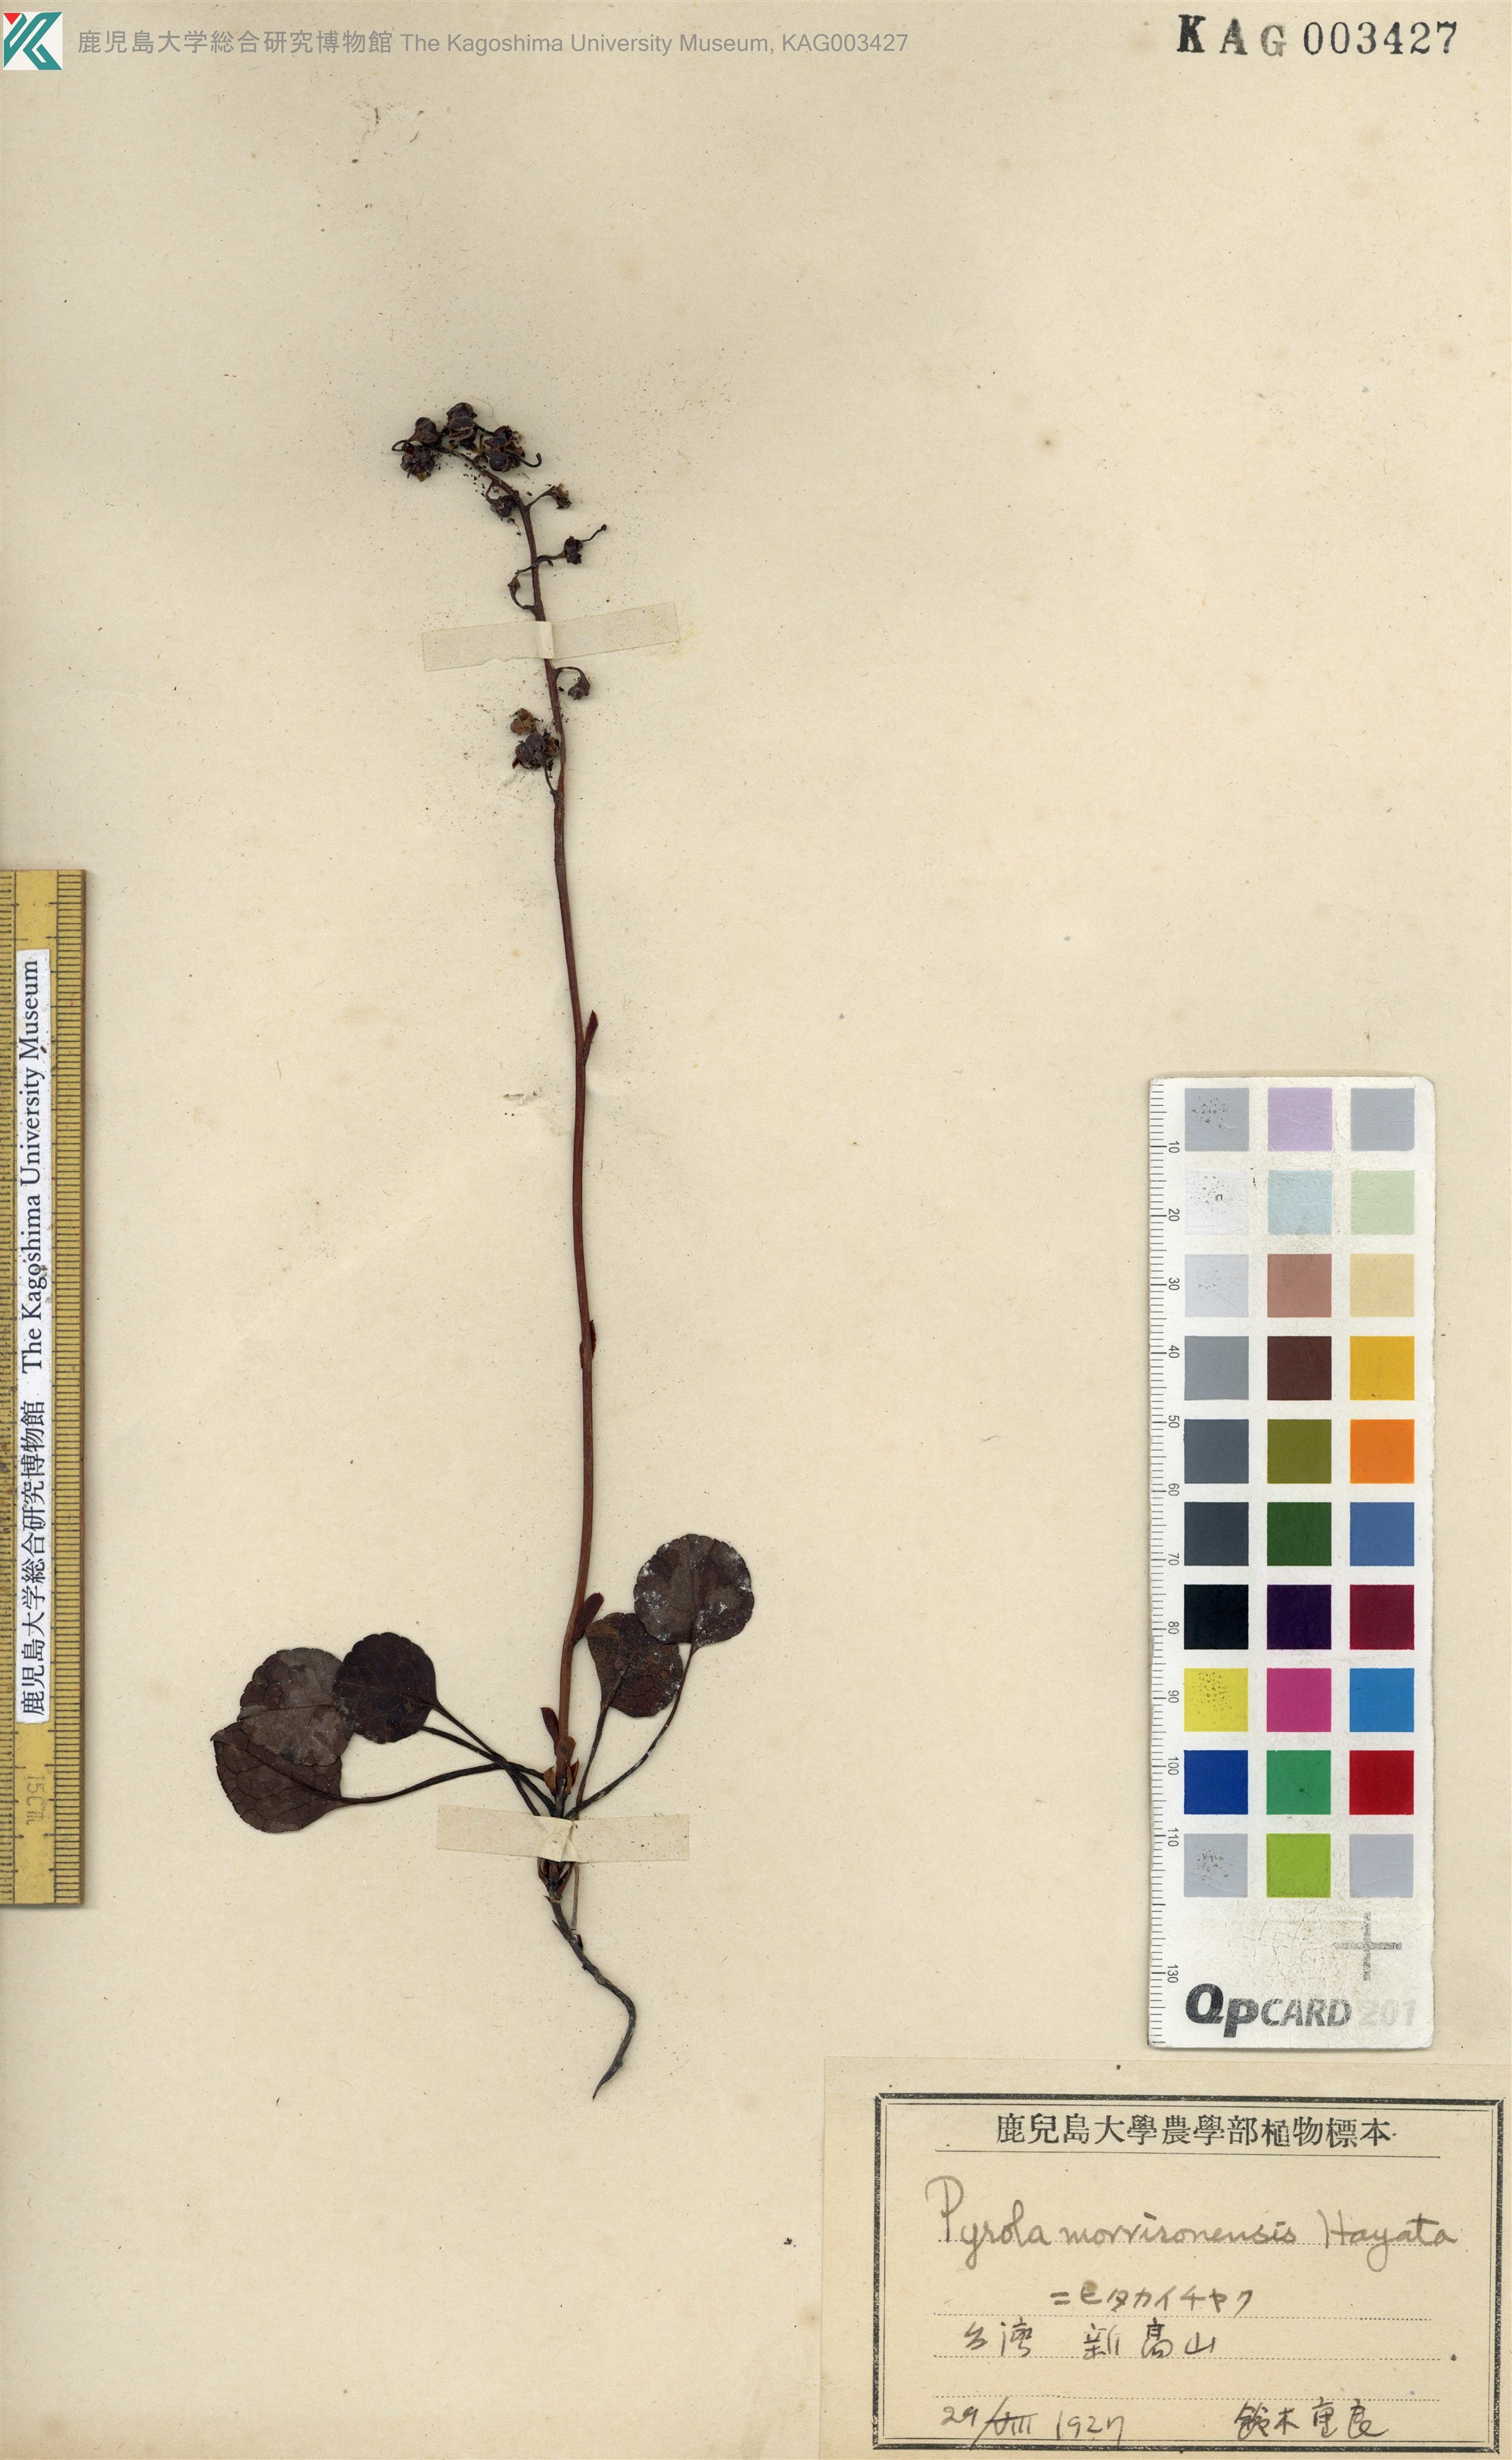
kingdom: Plantae
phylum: Tracheophyta
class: Magnoliopsida
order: Ericales
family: Ericaceae
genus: Pyrola
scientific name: Pyrola morrisonensis
